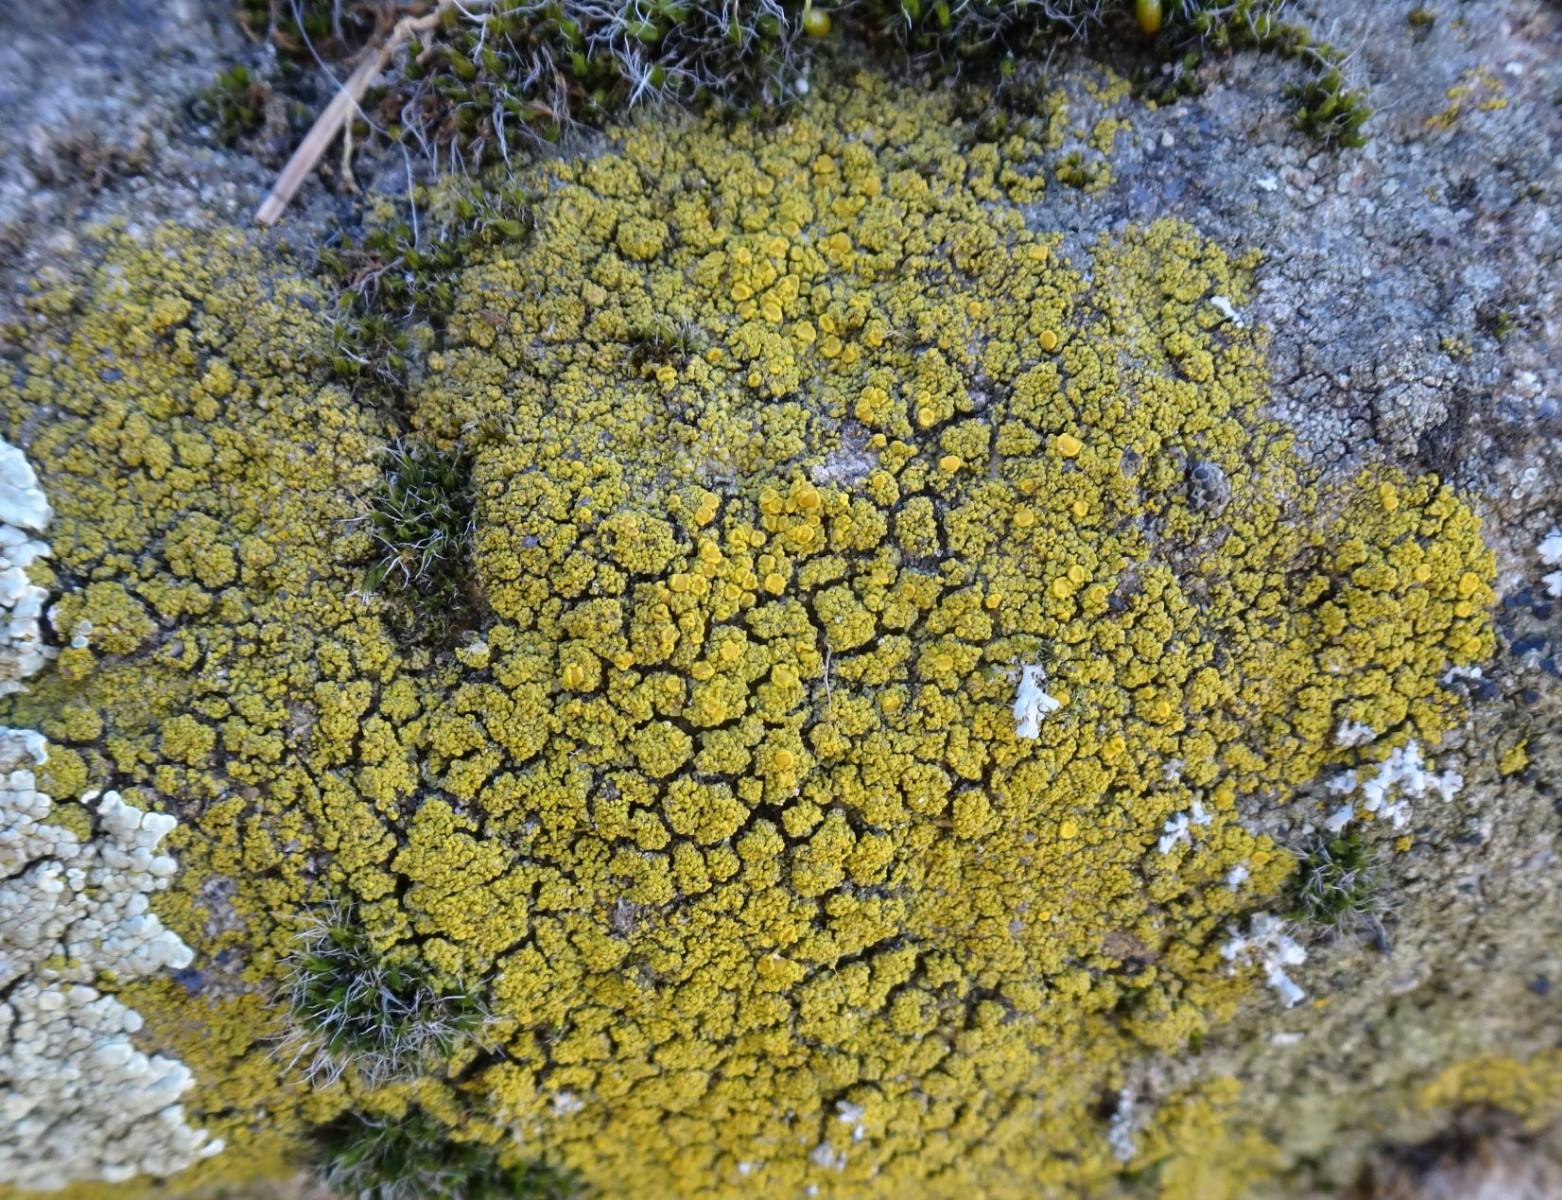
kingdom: Fungi
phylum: Ascomycota
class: Candelariomycetes
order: Candelariales
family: Candelariaceae
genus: Candelariella
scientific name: Candelariella vitellina
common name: almindelig æggeblommelav
